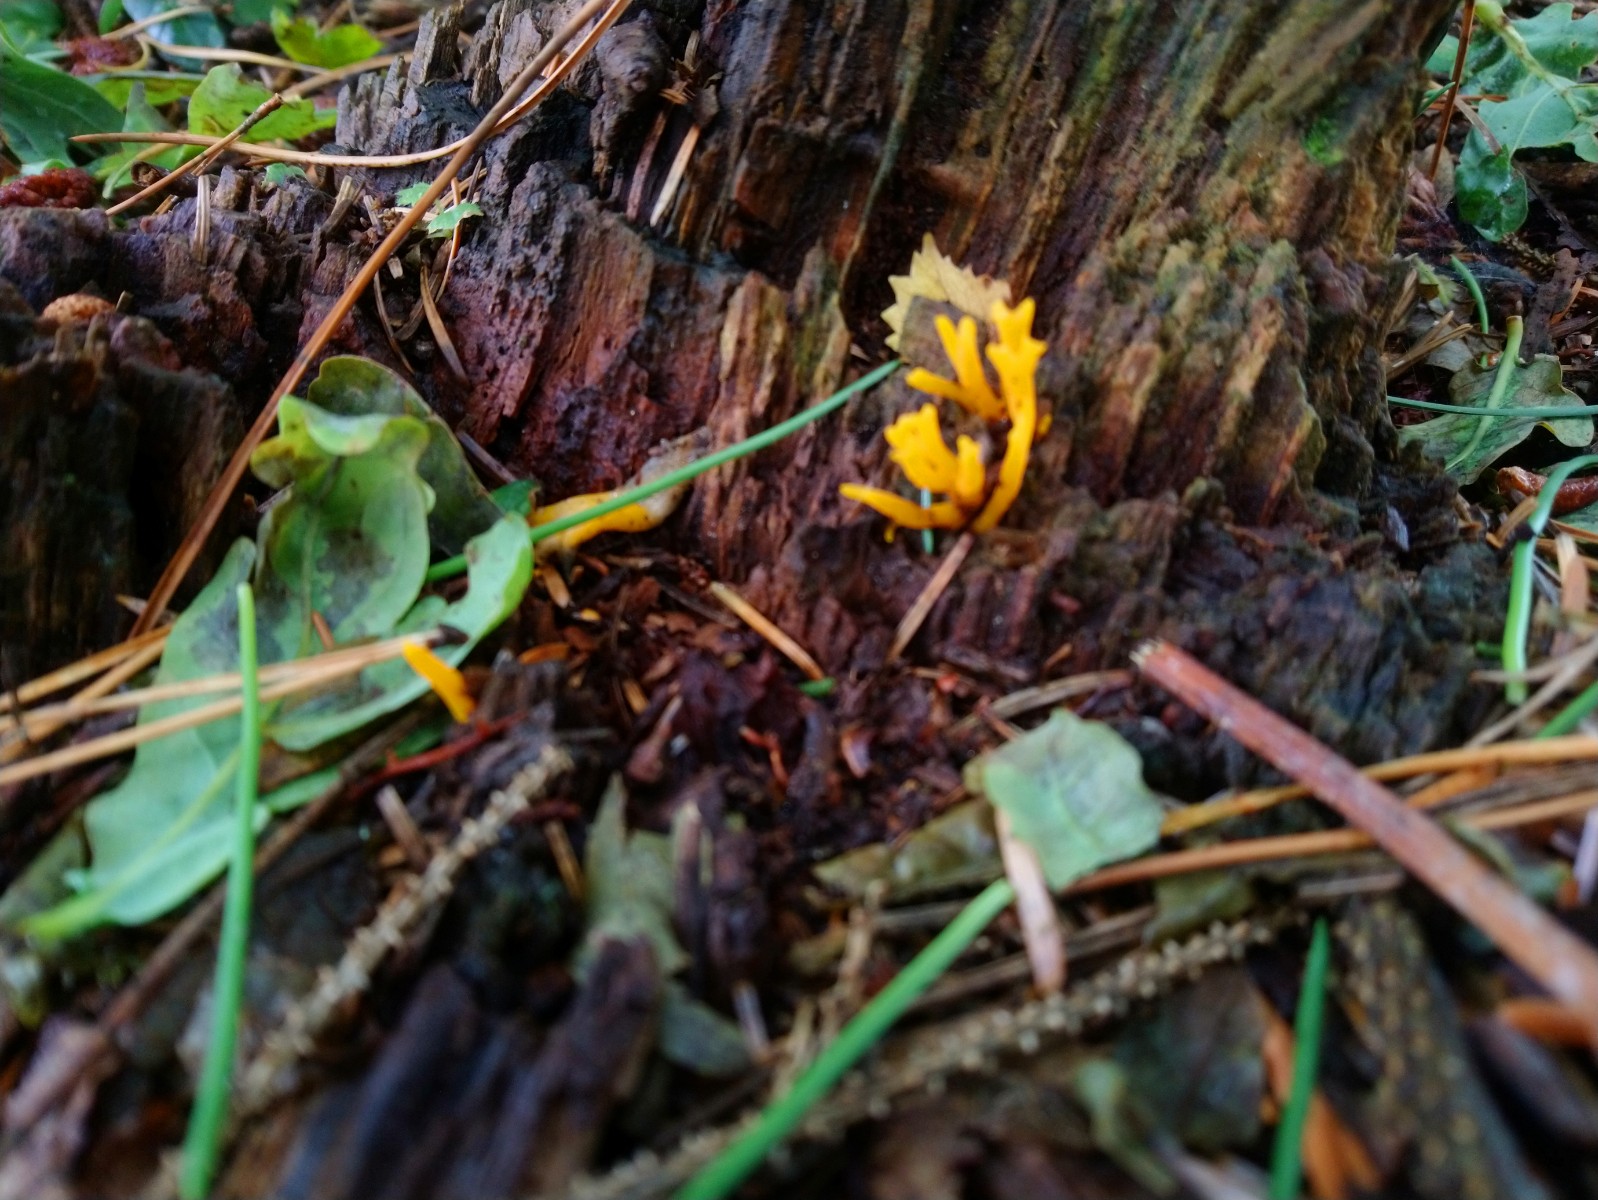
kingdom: Fungi
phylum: Basidiomycota
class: Dacrymycetes
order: Dacrymycetales
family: Dacrymycetaceae
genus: Calocera
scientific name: Calocera viscosa
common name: almindelig guldgaffel
